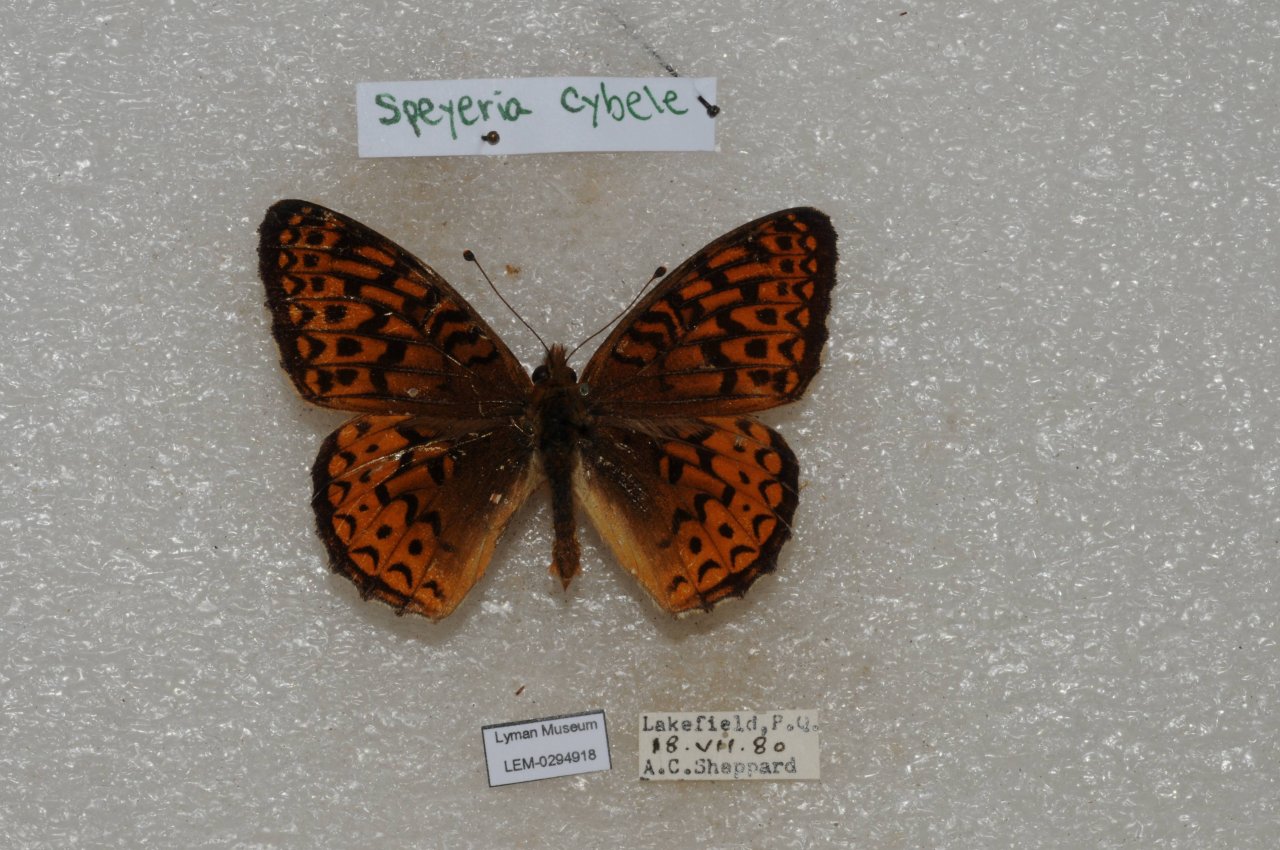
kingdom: Animalia
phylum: Arthropoda
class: Insecta
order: Lepidoptera
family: Nymphalidae
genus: Speyeria
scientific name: Speyeria atlantis
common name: Atlantis Fritillary
